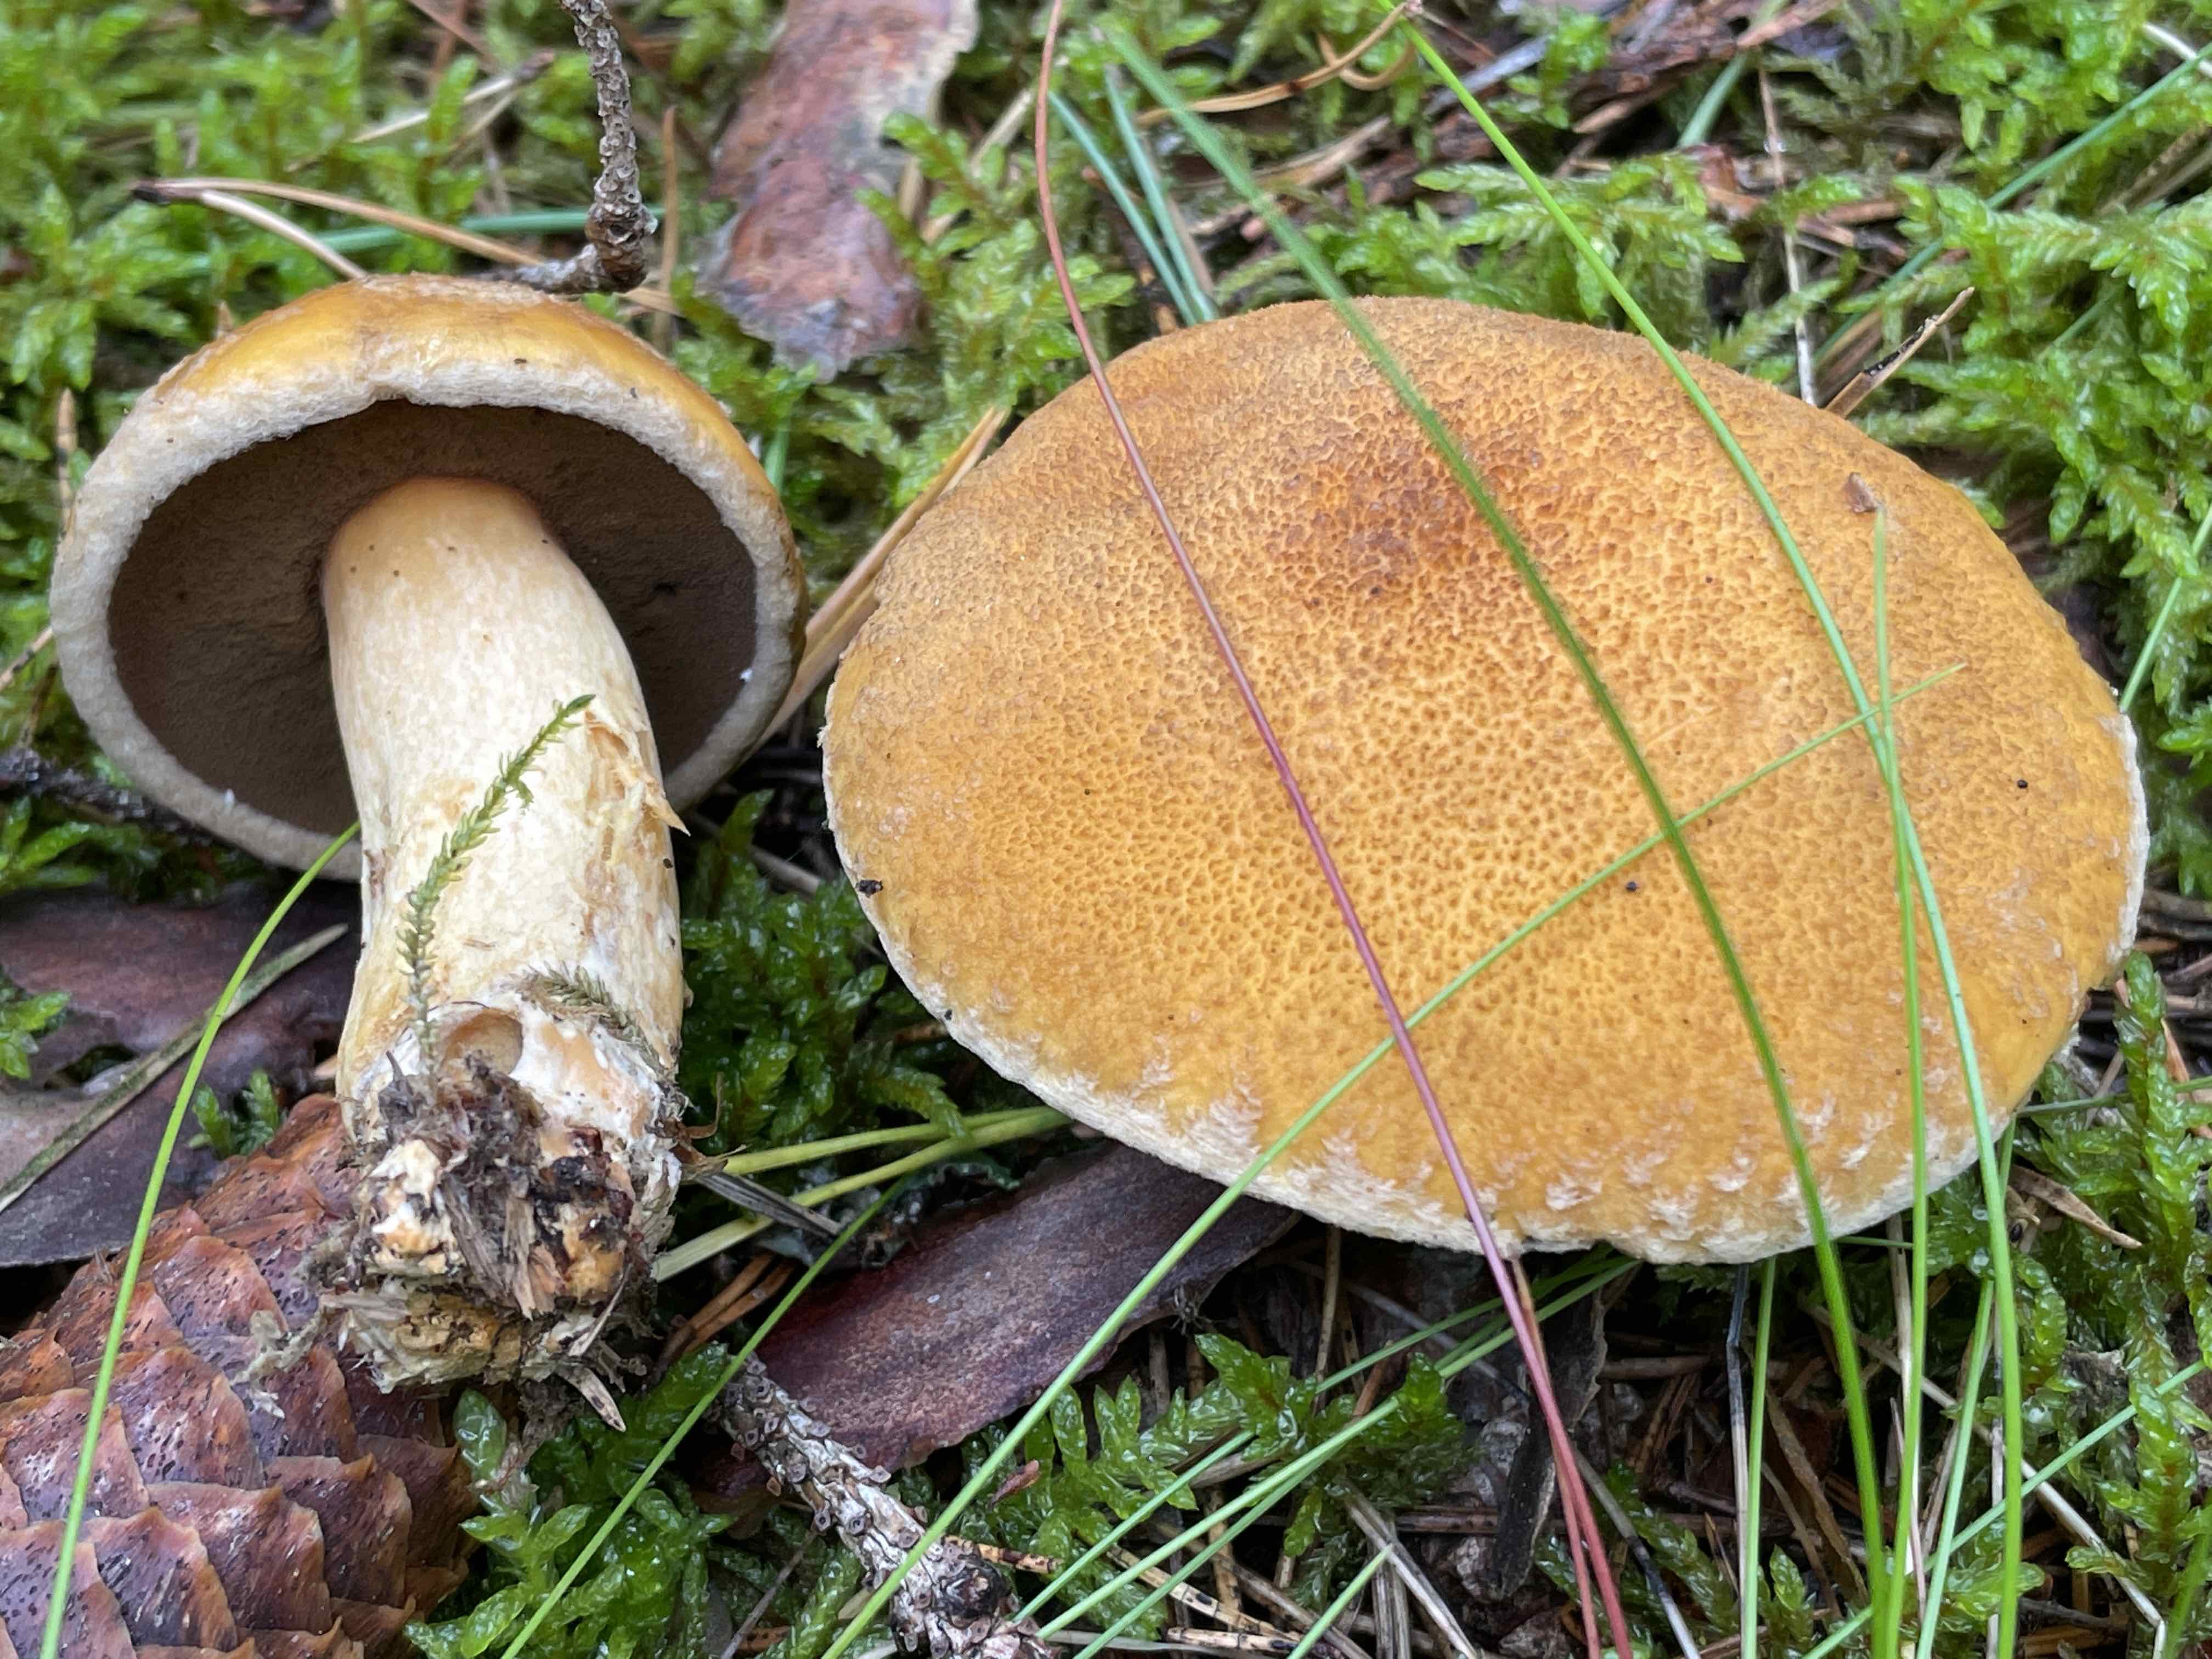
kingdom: Fungi
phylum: Basidiomycota
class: Agaricomycetes
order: Boletales
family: Suillaceae
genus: Suillus
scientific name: Suillus variegatus
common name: broget slimrørhat
